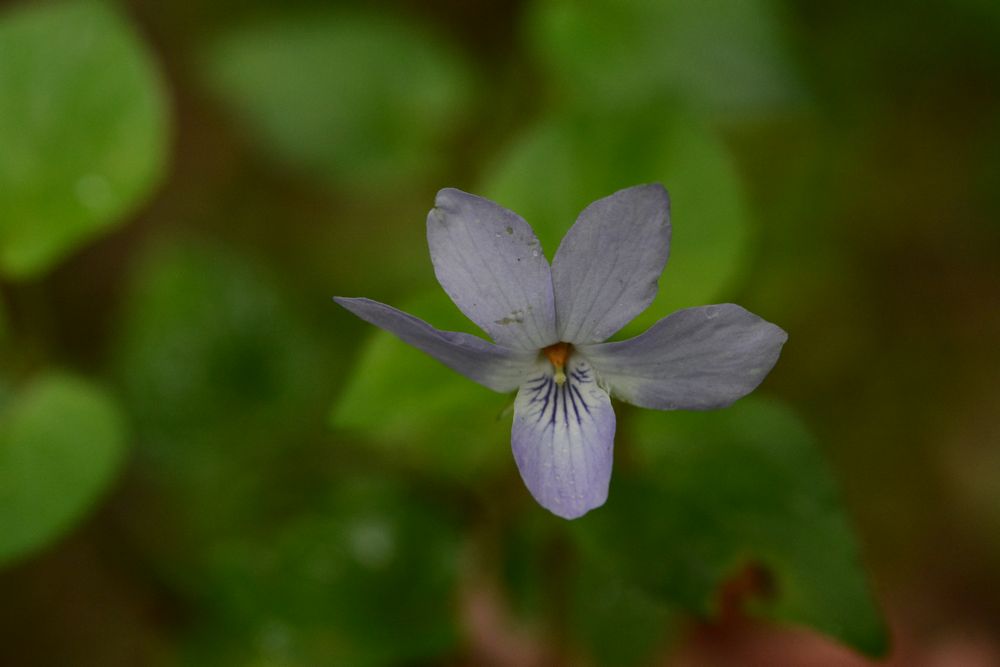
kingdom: Plantae
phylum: Tracheophyta
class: Magnoliopsida
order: Malpighiales
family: Violaceae
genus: Viola
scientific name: Viola
